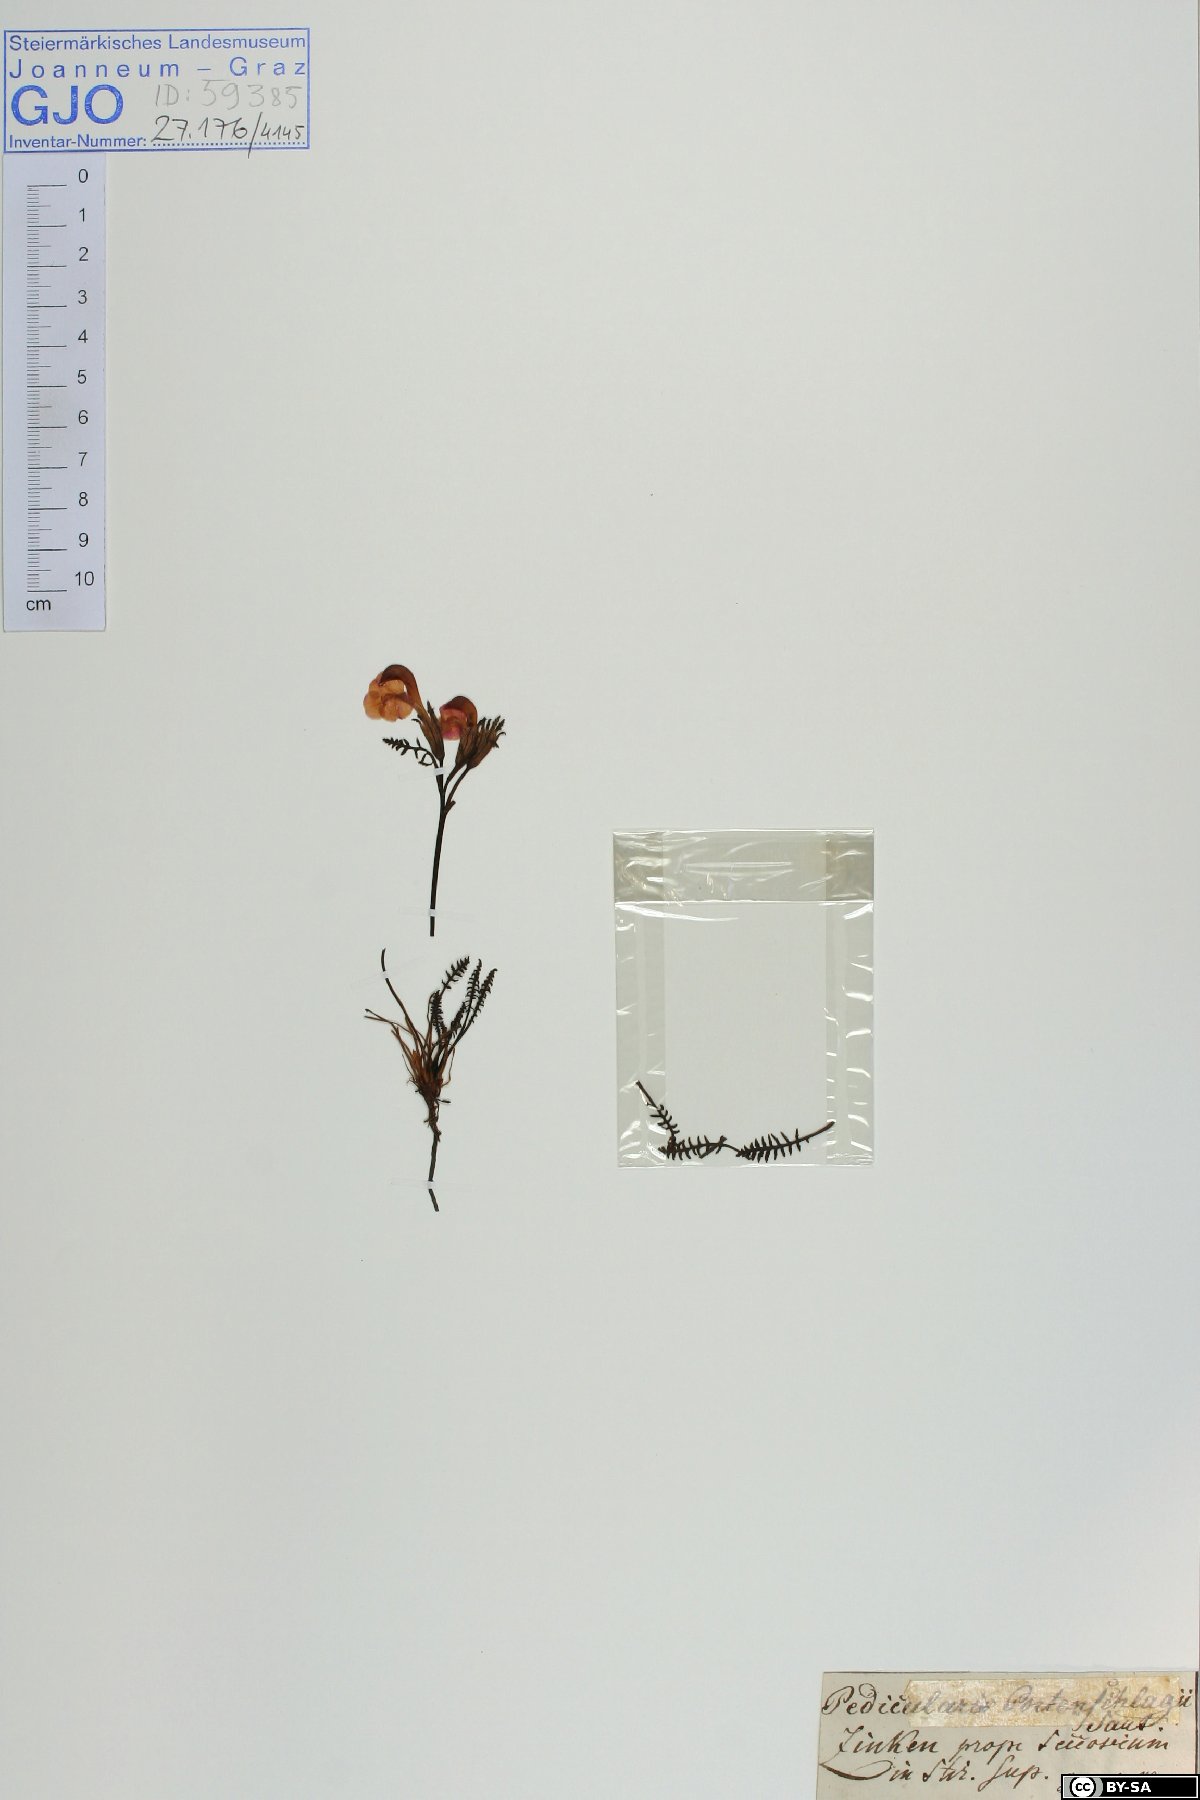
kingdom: Plantae
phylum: Tracheophyta
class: Magnoliopsida
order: Lamiales
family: Orobanchaceae
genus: Pedicularis
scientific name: Pedicularis portenschlagii
